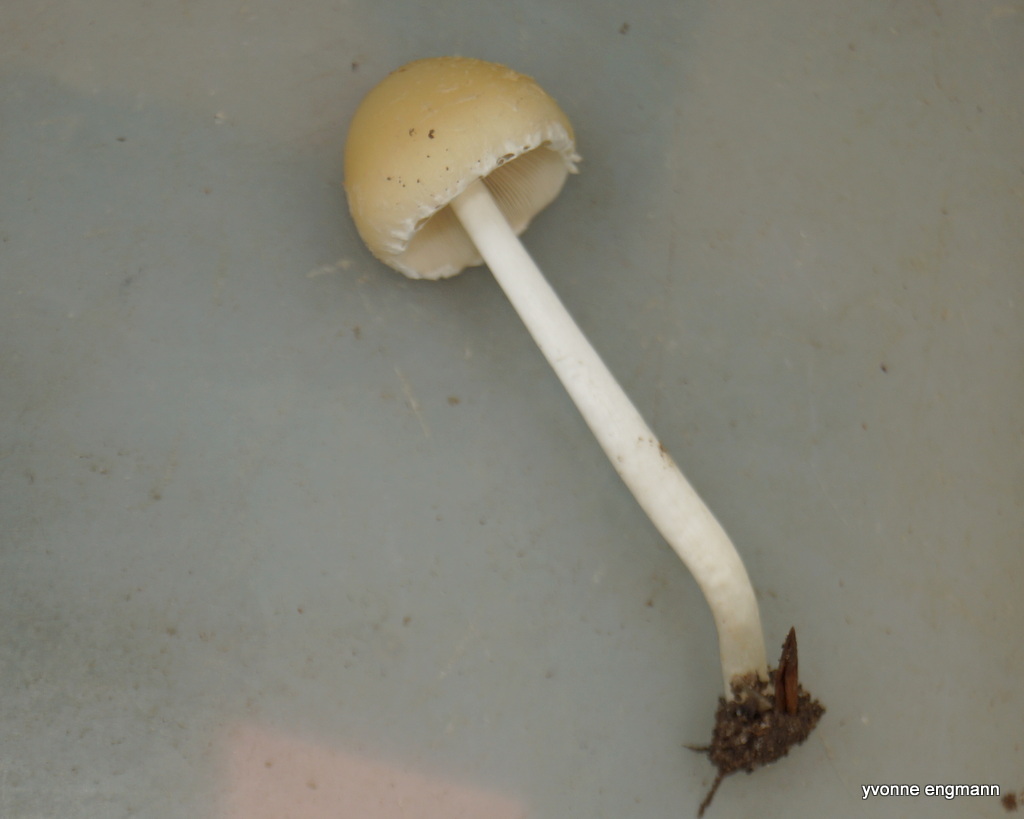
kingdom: Fungi
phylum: Basidiomycota
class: Agaricomycetes
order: Agaricales
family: Psathyrellaceae
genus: Candolleomyces
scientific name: Candolleomyces candolleanus
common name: Candolles mørkhat
